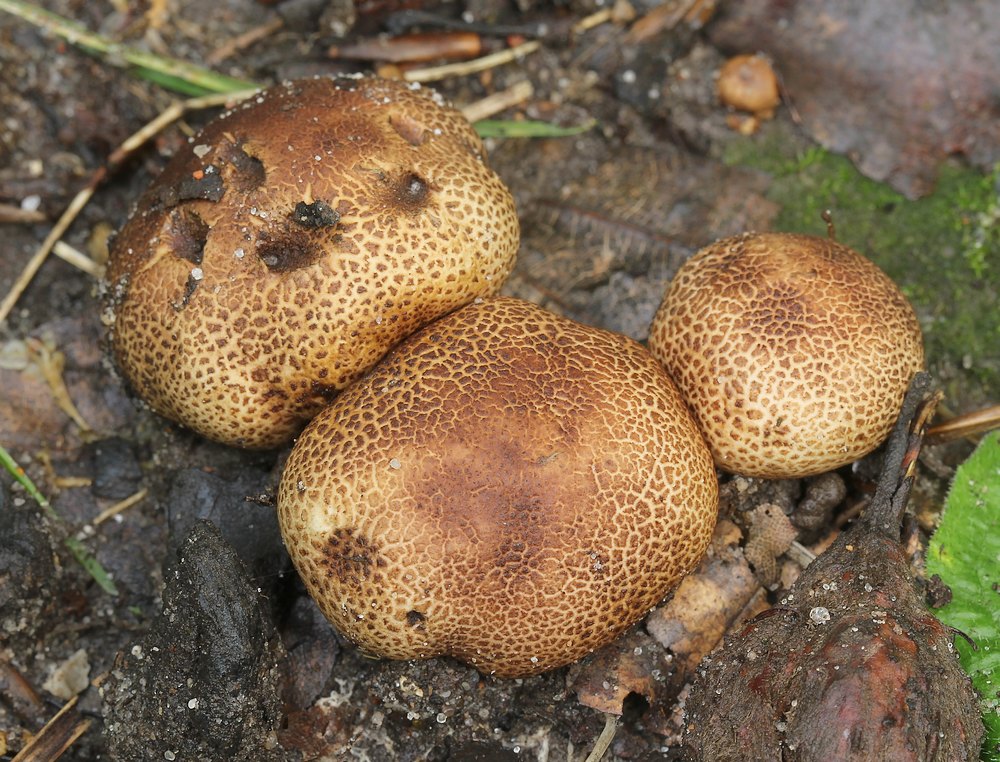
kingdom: Fungi
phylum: Basidiomycota
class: Agaricomycetes
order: Boletales
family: Sclerodermataceae
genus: Scleroderma
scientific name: Scleroderma
